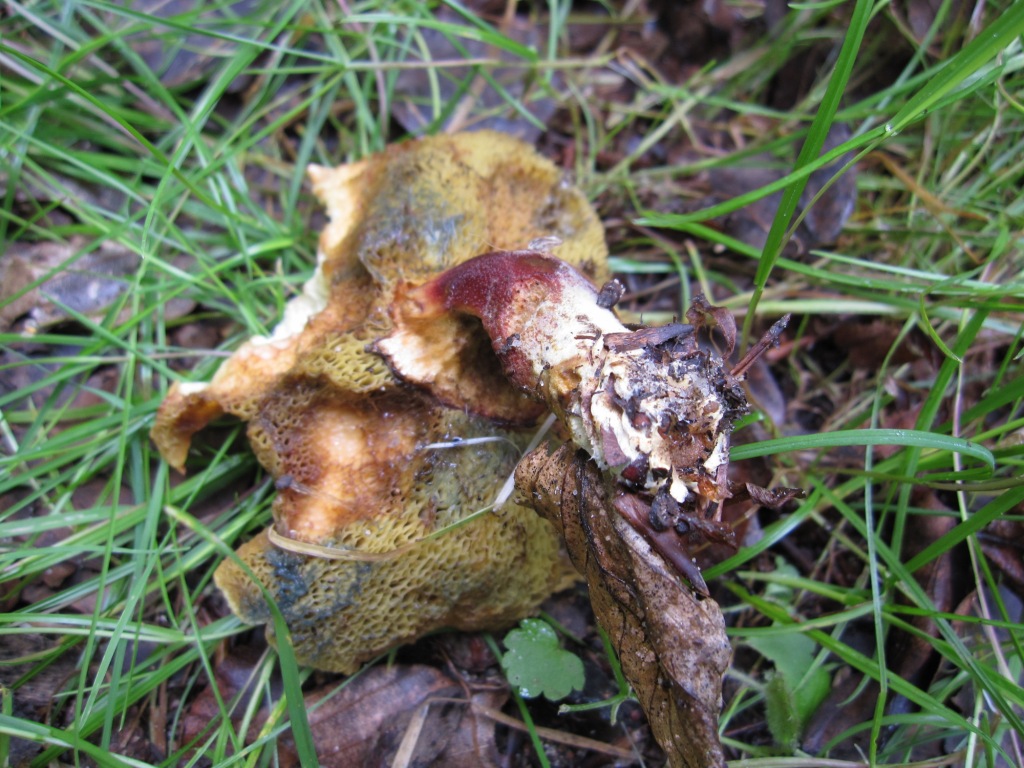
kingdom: Fungi
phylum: Basidiomycota
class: Agaricomycetes
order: Boletales
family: Boletaceae
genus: Hortiboletus
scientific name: Hortiboletus rubellus
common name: blodrød rørhat
